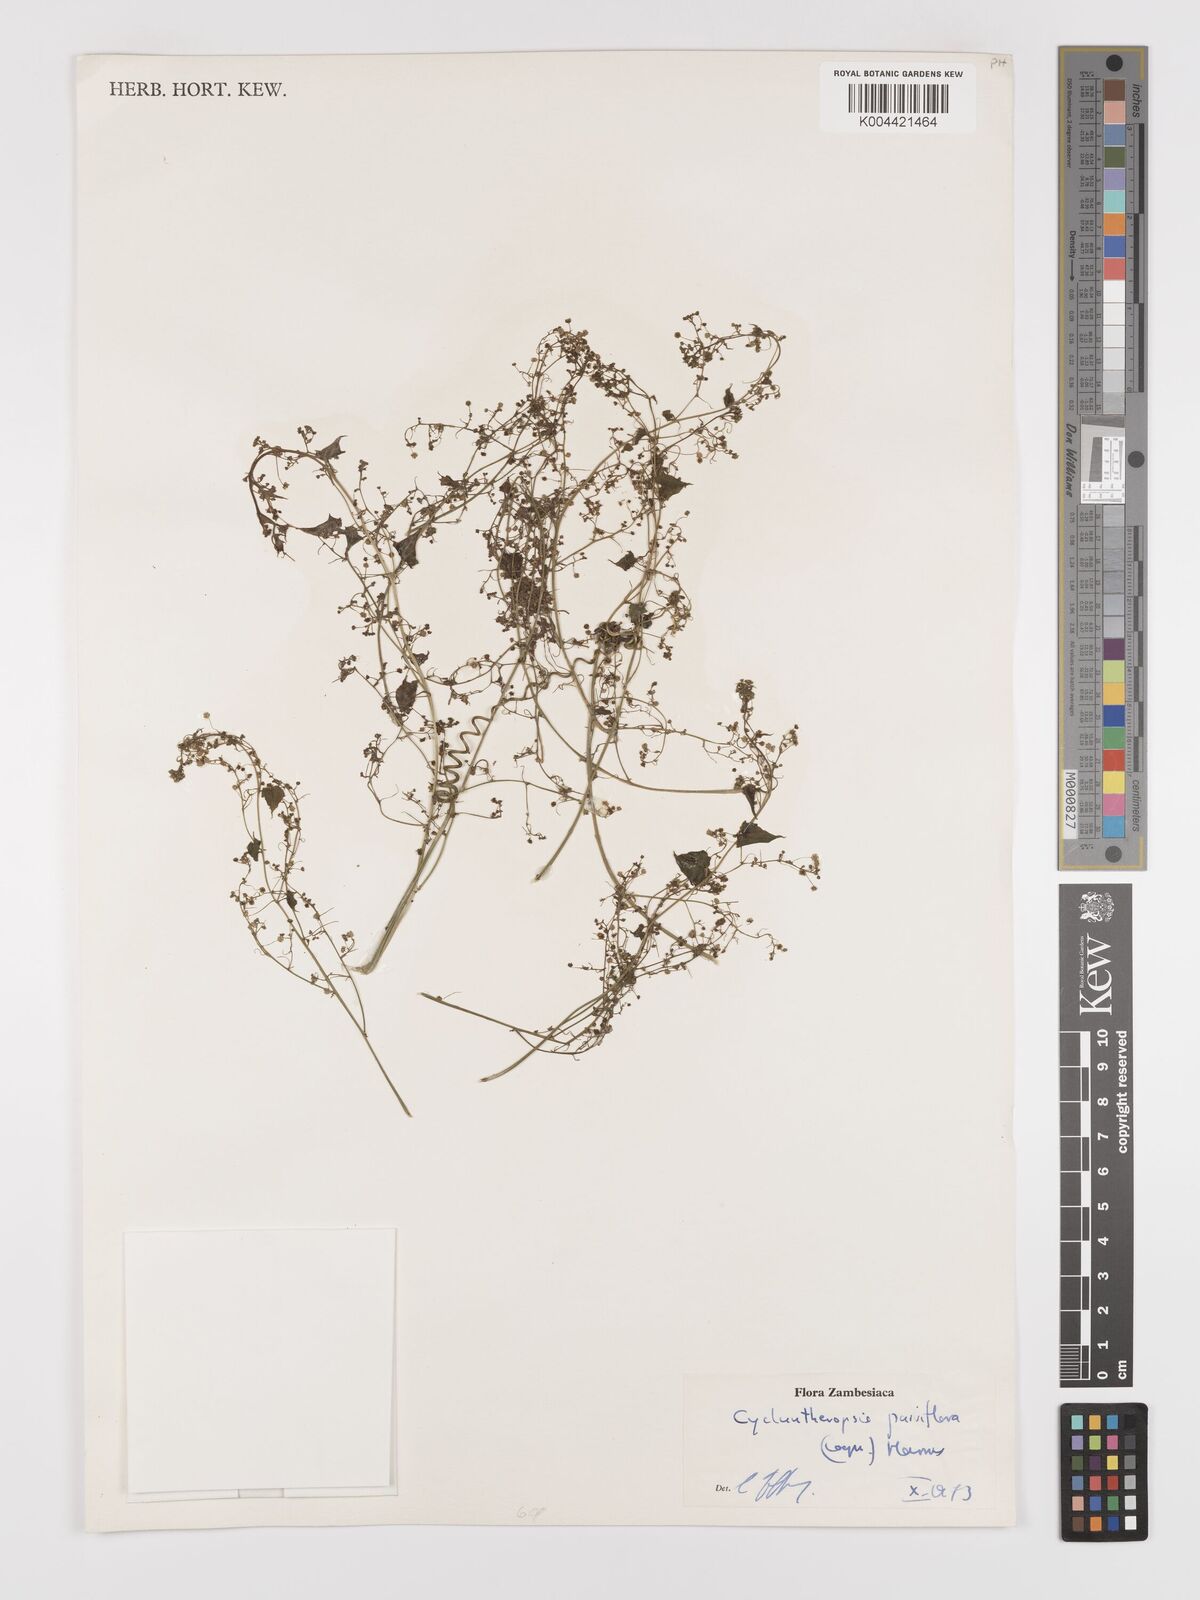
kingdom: Plantae
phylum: Tracheophyta
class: Magnoliopsida
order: Cucurbitales
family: Cucurbitaceae
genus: Cyclantheropsis
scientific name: Cyclantheropsis parviflora
